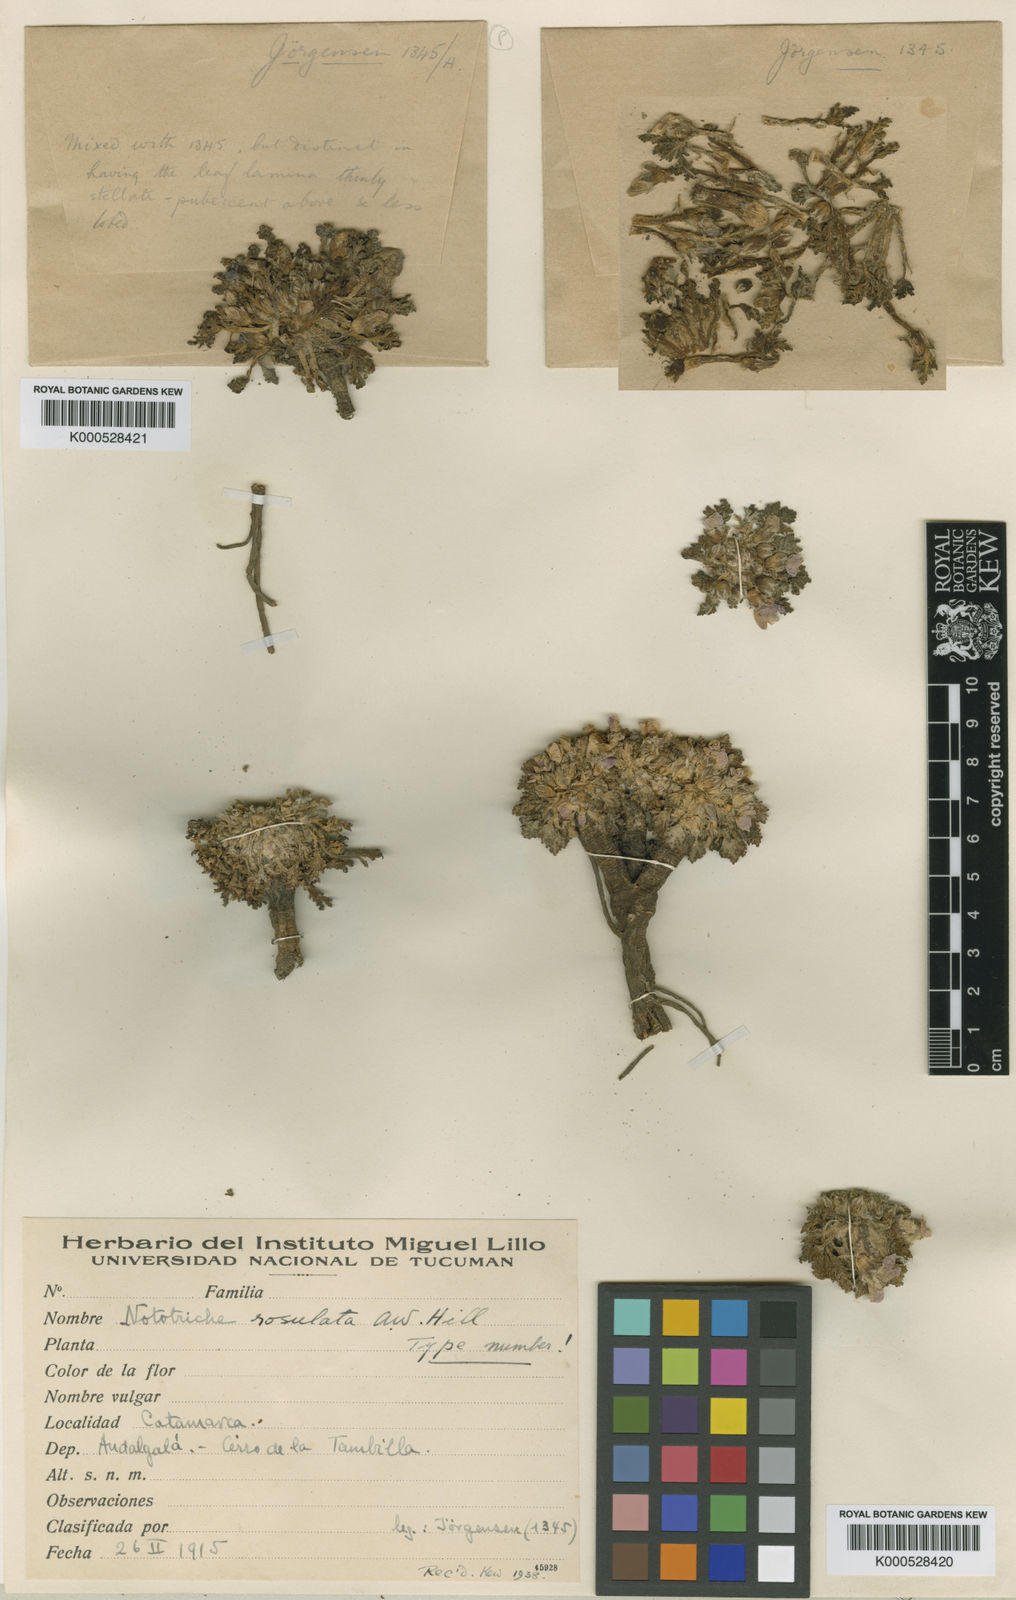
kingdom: Plantae
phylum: Tracheophyta
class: Magnoliopsida
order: Malvales
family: Malvaceae
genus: Nototriche
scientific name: Nototriche caesia
